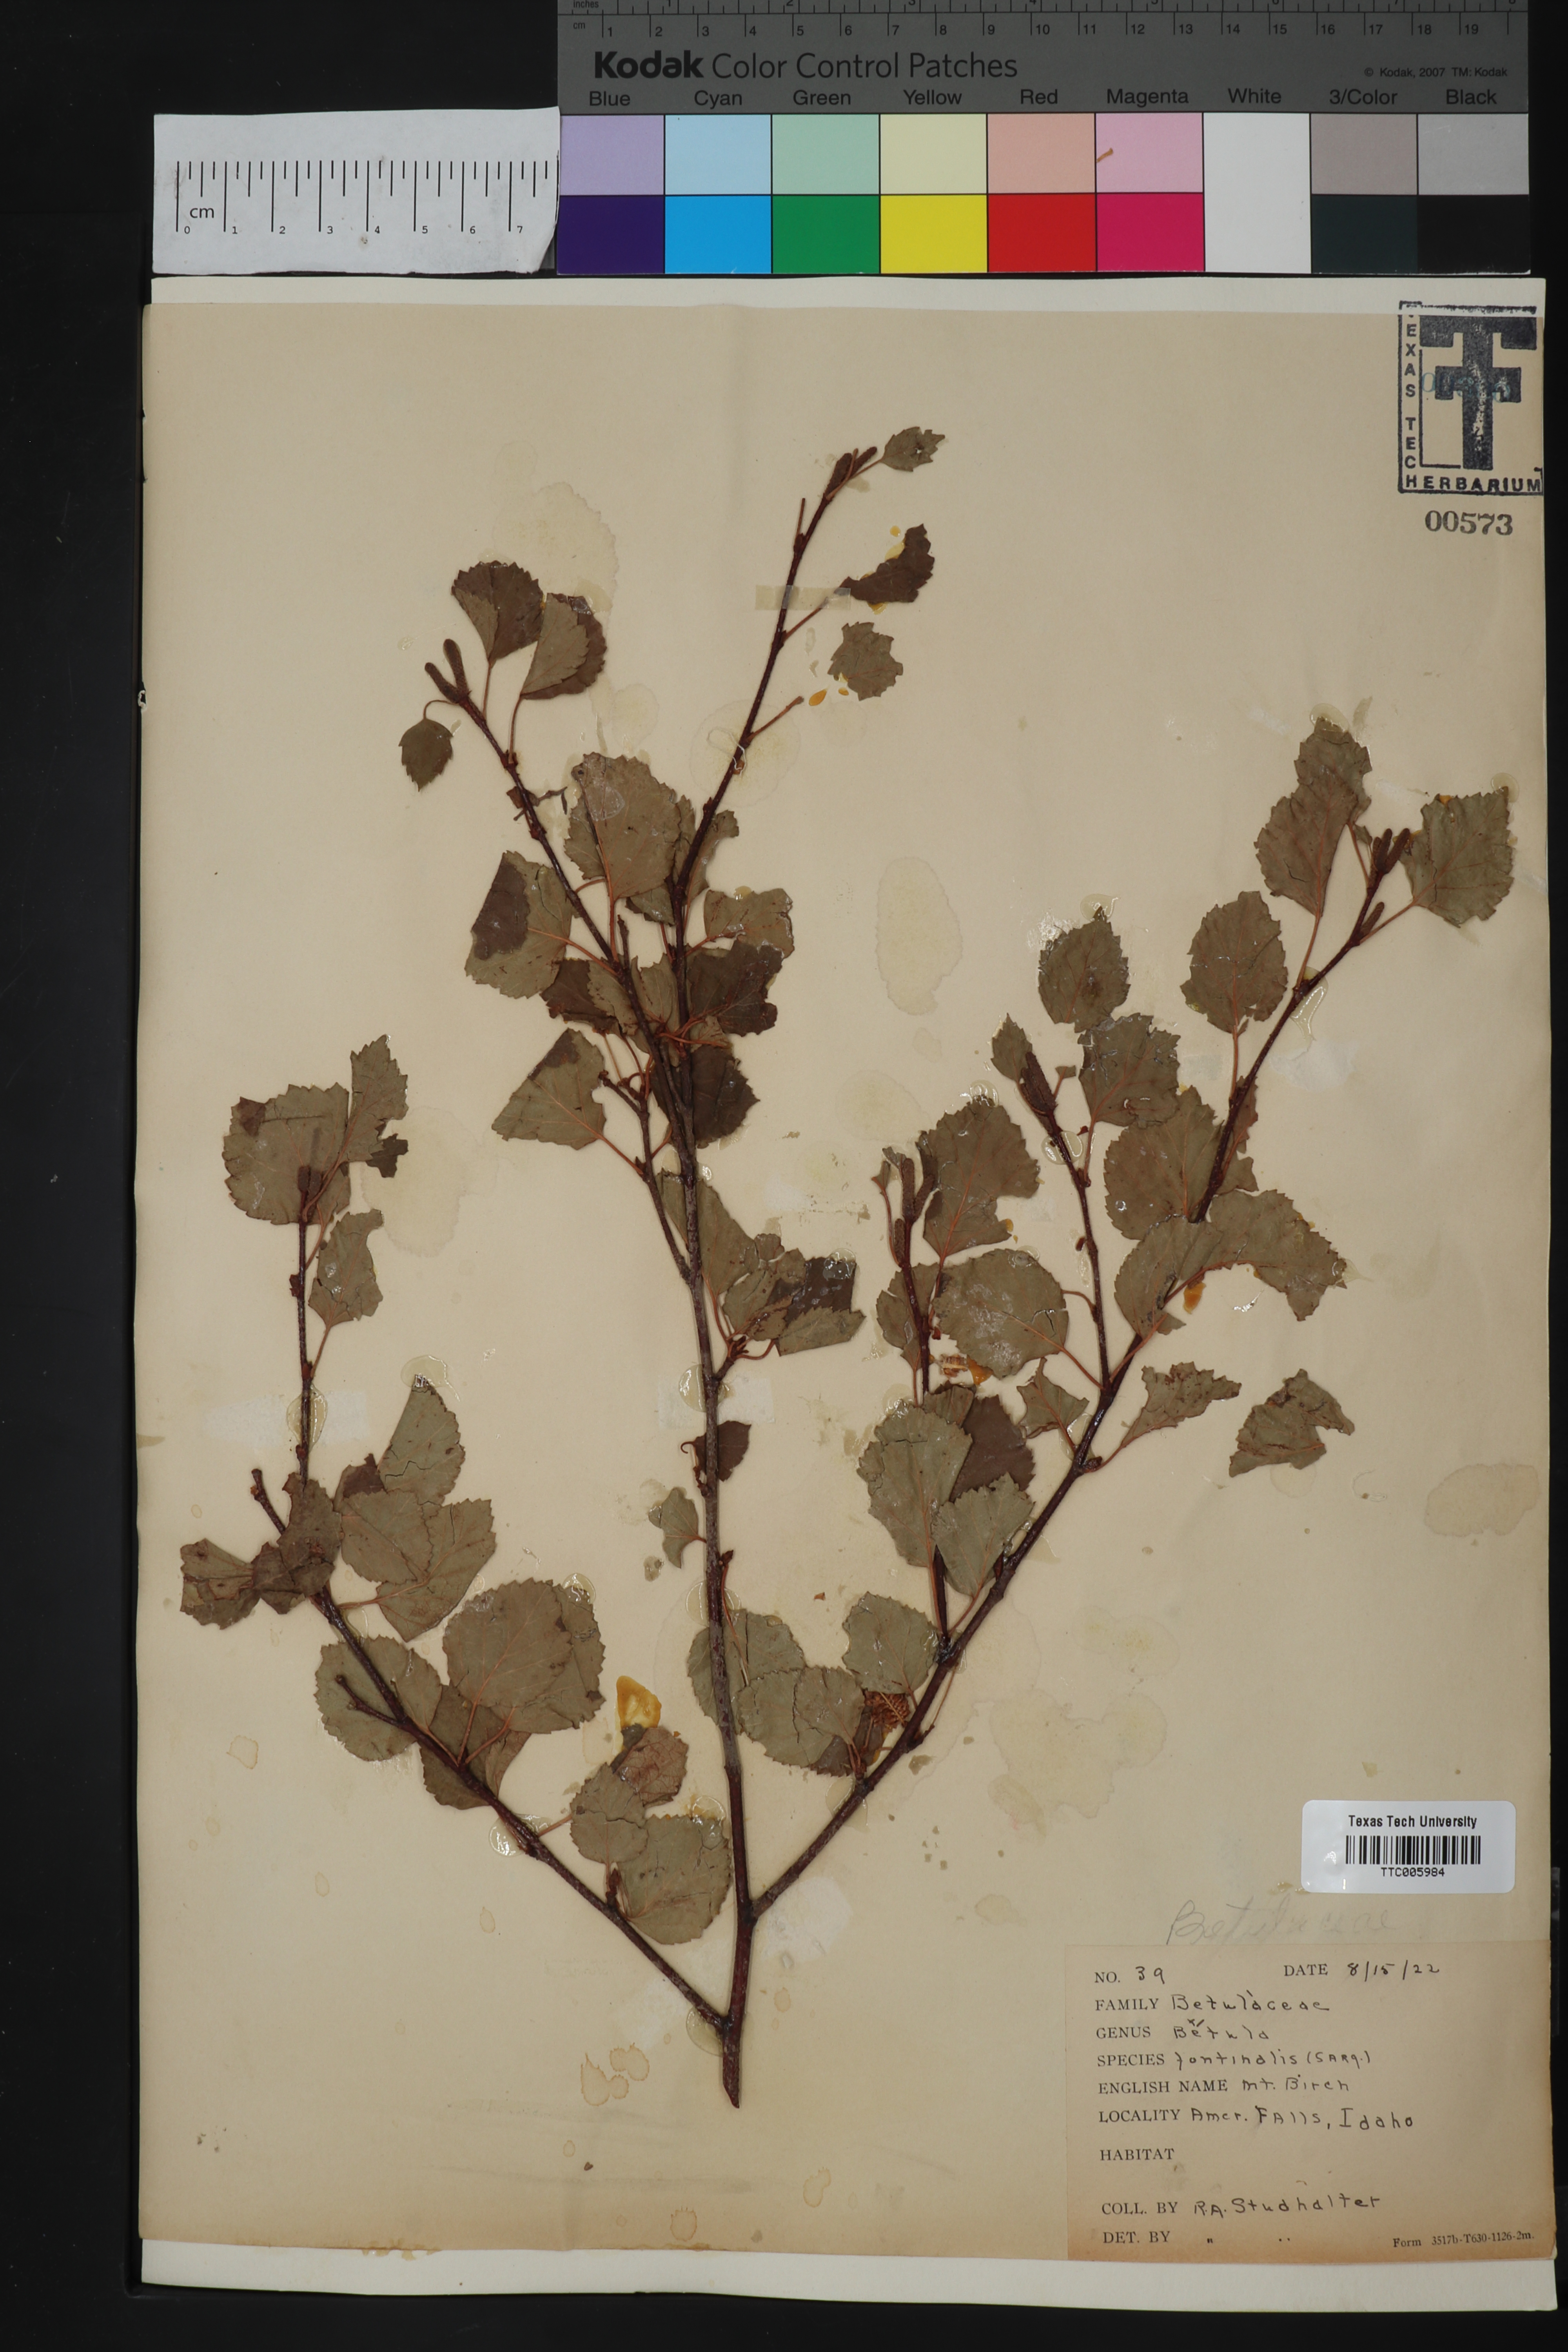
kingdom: Plantae
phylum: Tracheophyta
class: Magnoliopsida
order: Fagales
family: Betulaceae
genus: Betula
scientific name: Betula occidentalis
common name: River birch
